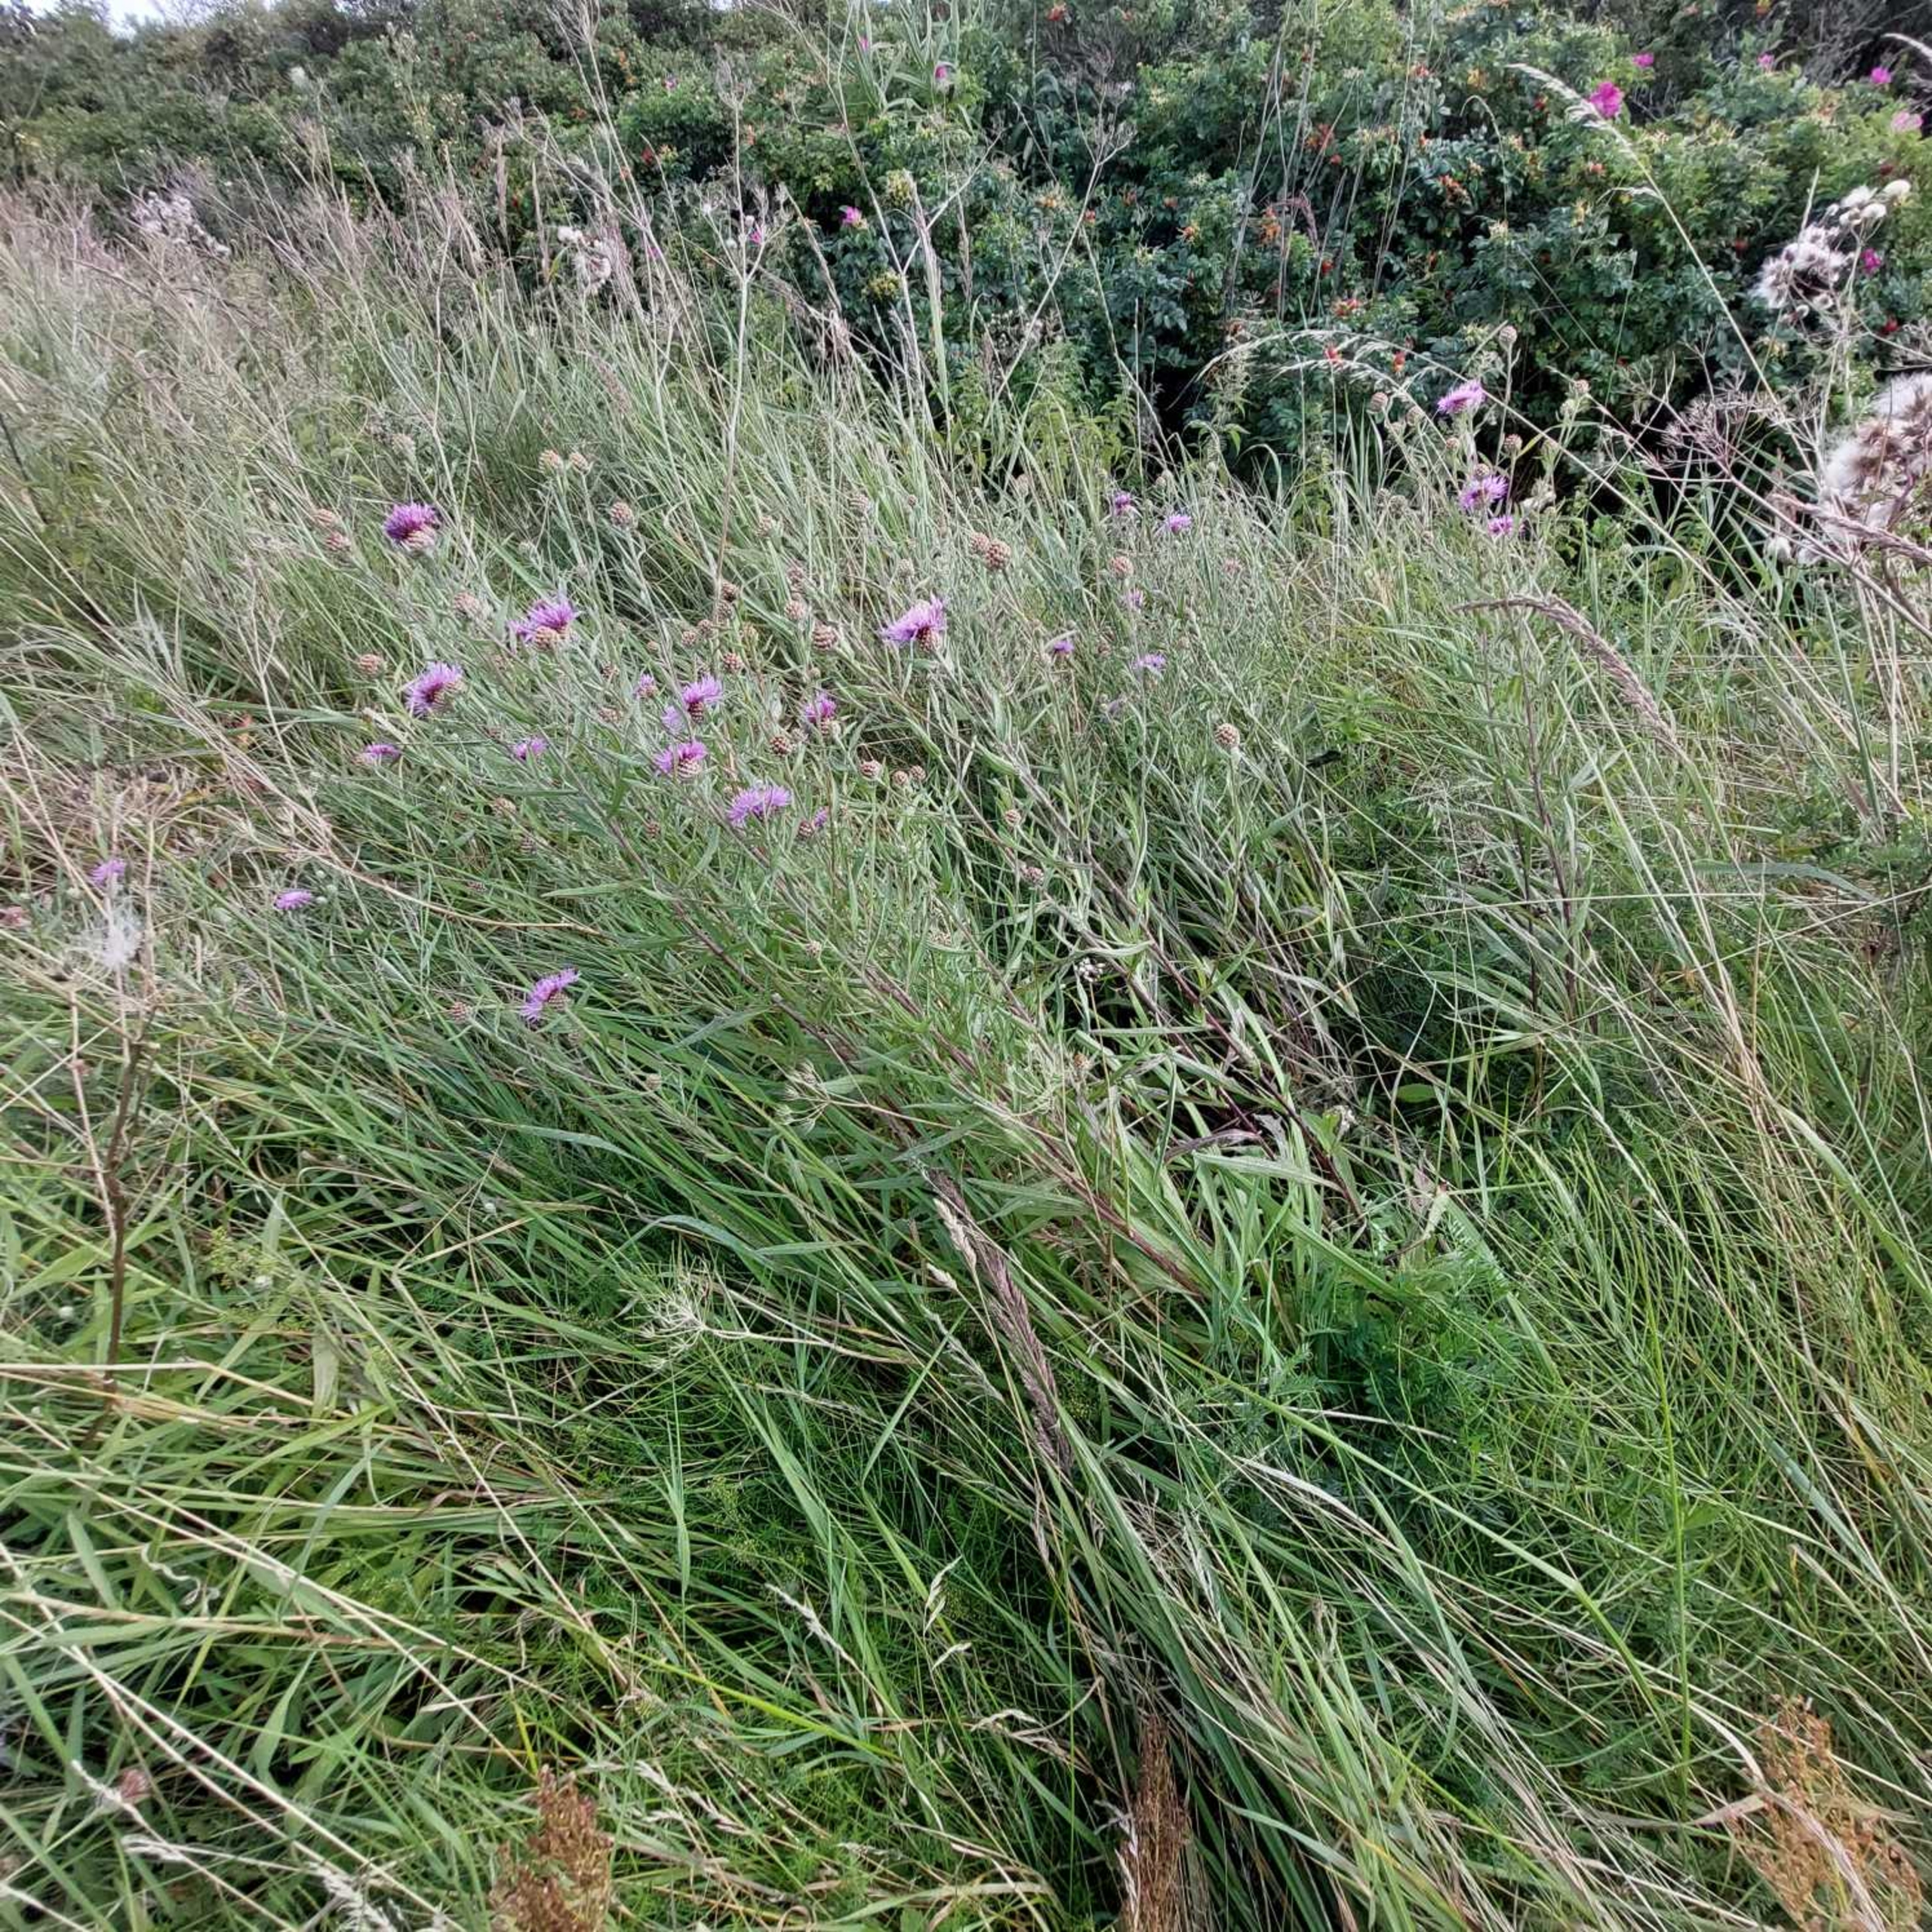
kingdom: Plantae
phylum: Tracheophyta
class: Magnoliopsida
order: Asterales
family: Asteraceae
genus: Centaurea
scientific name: Centaurea jacea
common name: Almindelig knopurt
